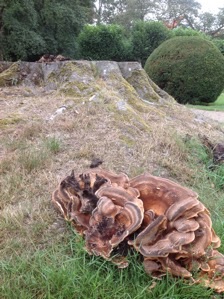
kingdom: Fungi
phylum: Basidiomycota
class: Agaricomycetes
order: Polyporales
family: Meripilaceae
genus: Meripilus
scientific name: Meripilus giganteus
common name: kæmpeporesvamp
